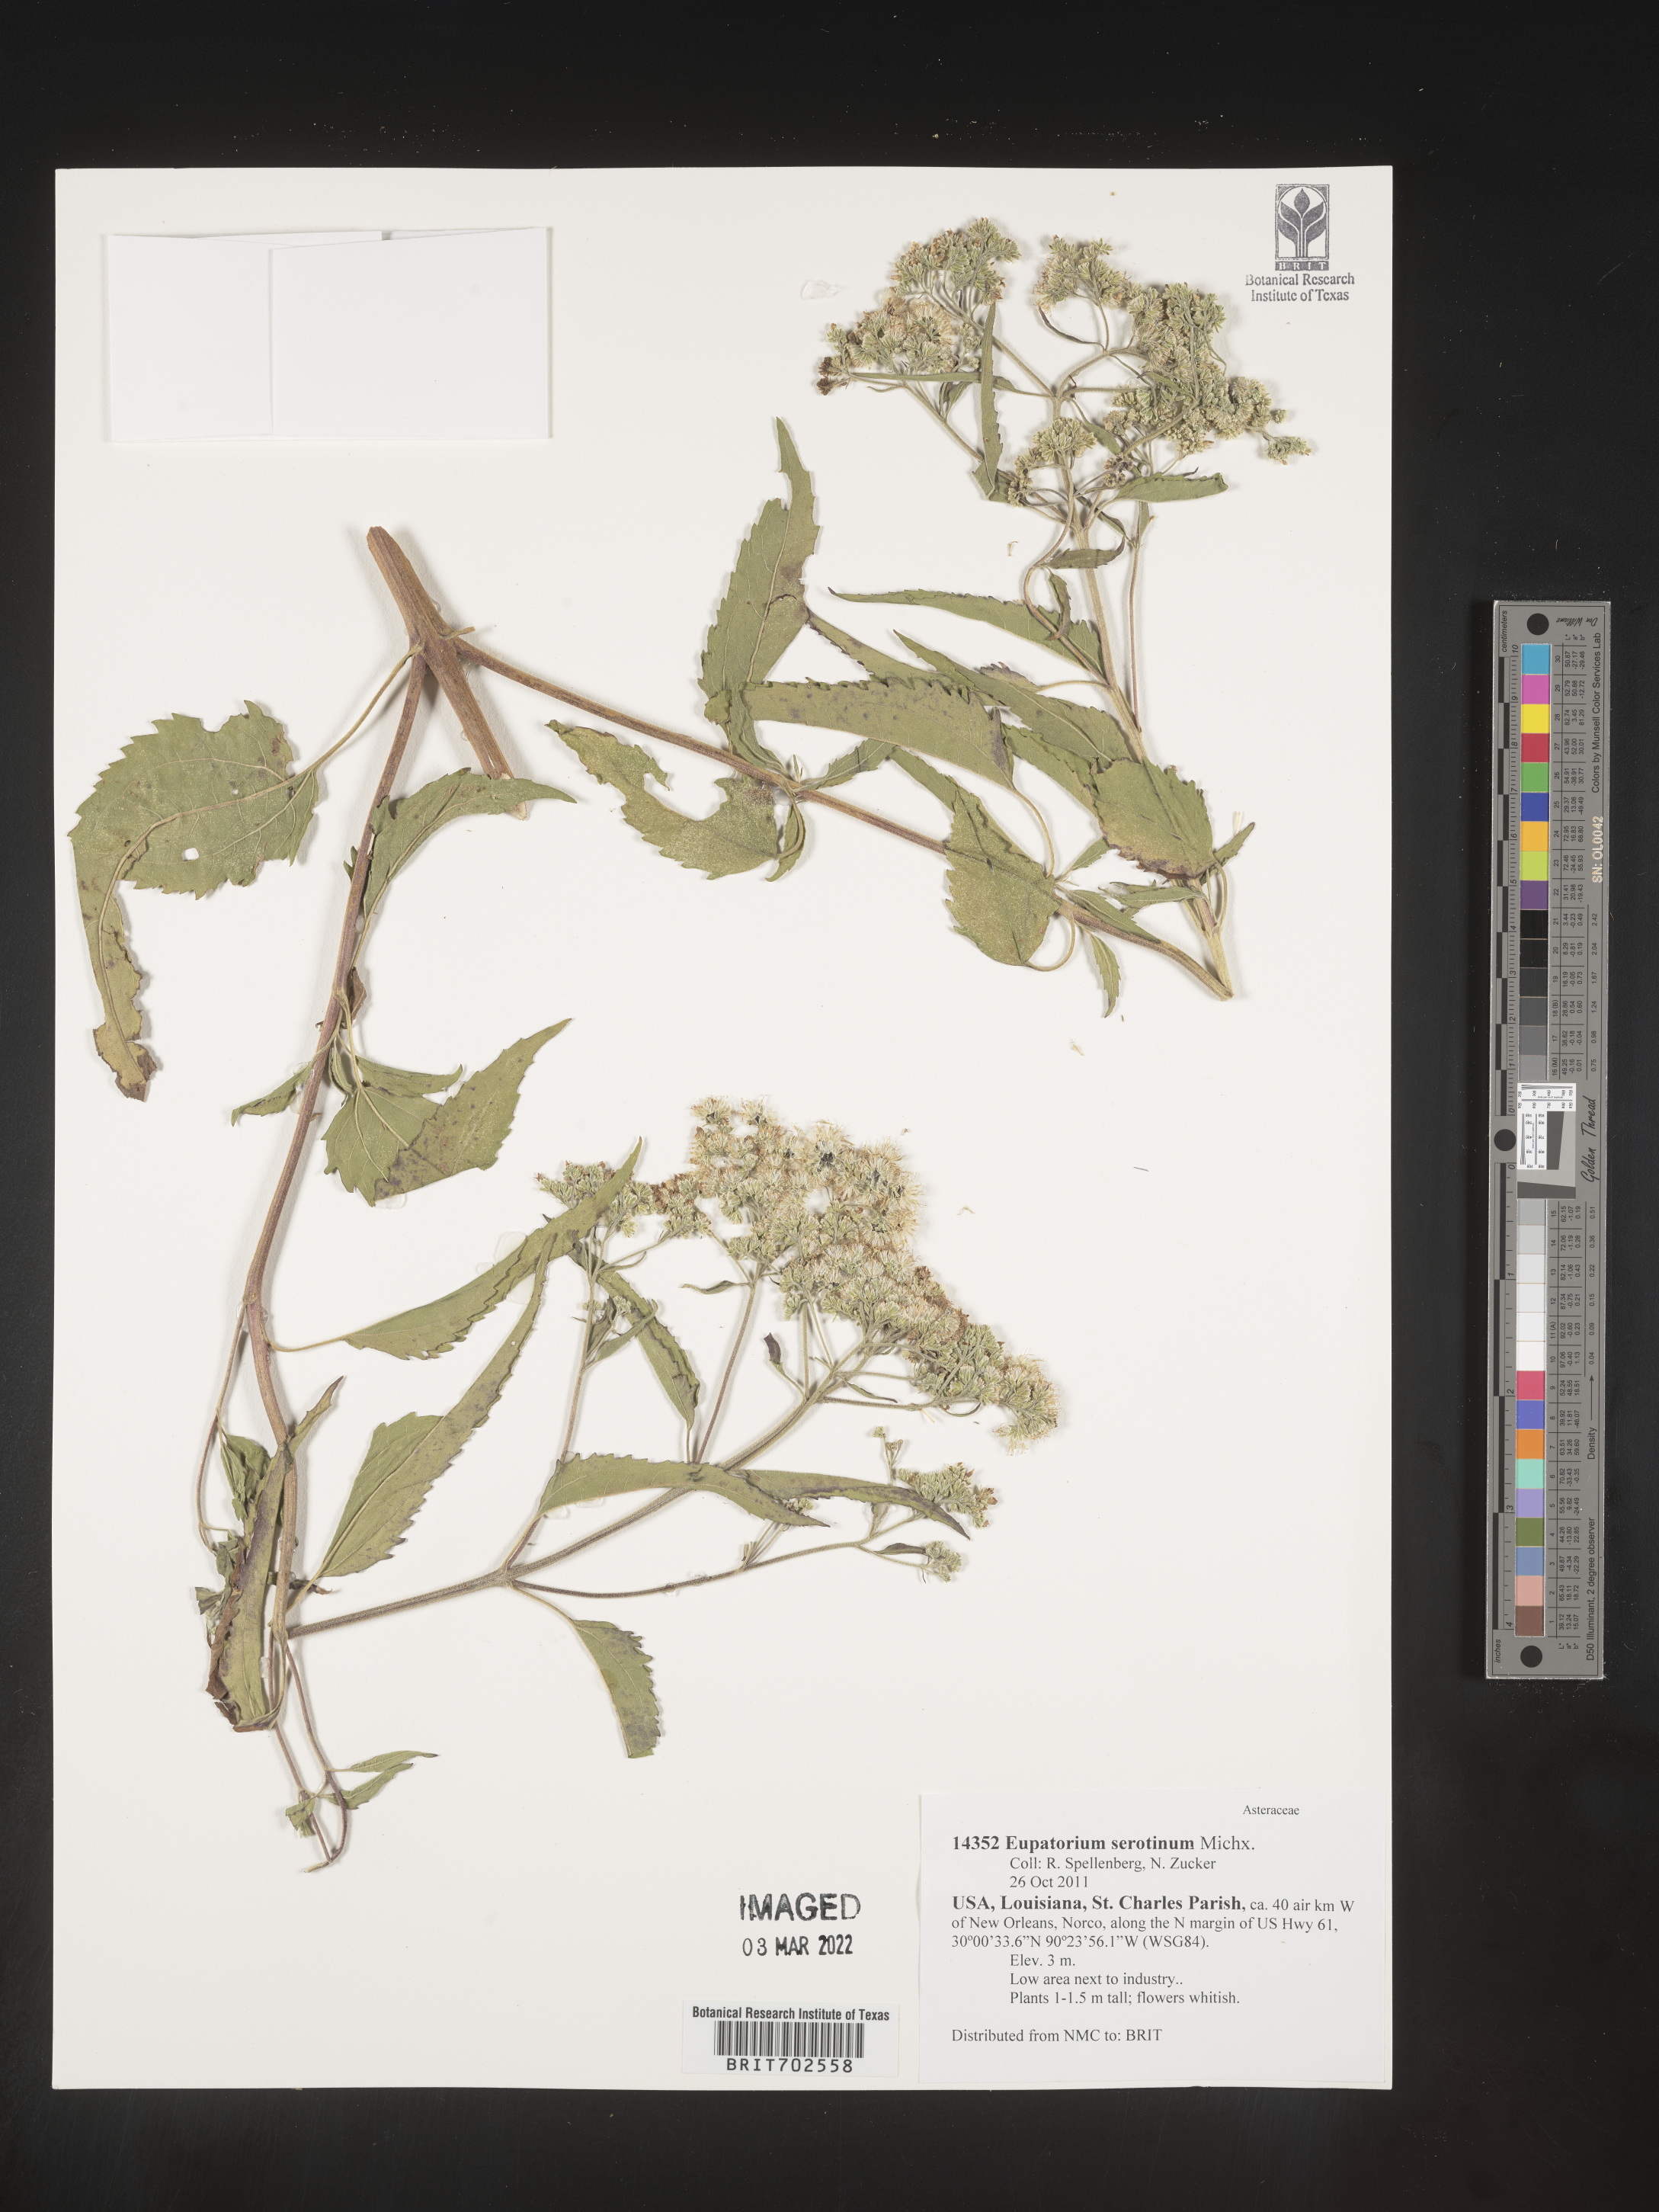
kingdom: Plantae
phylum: Tracheophyta
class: Magnoliopsida
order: Asterales
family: Asteraceae
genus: Eupatorium
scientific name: Eupatorium serotinum
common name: Late boneset
